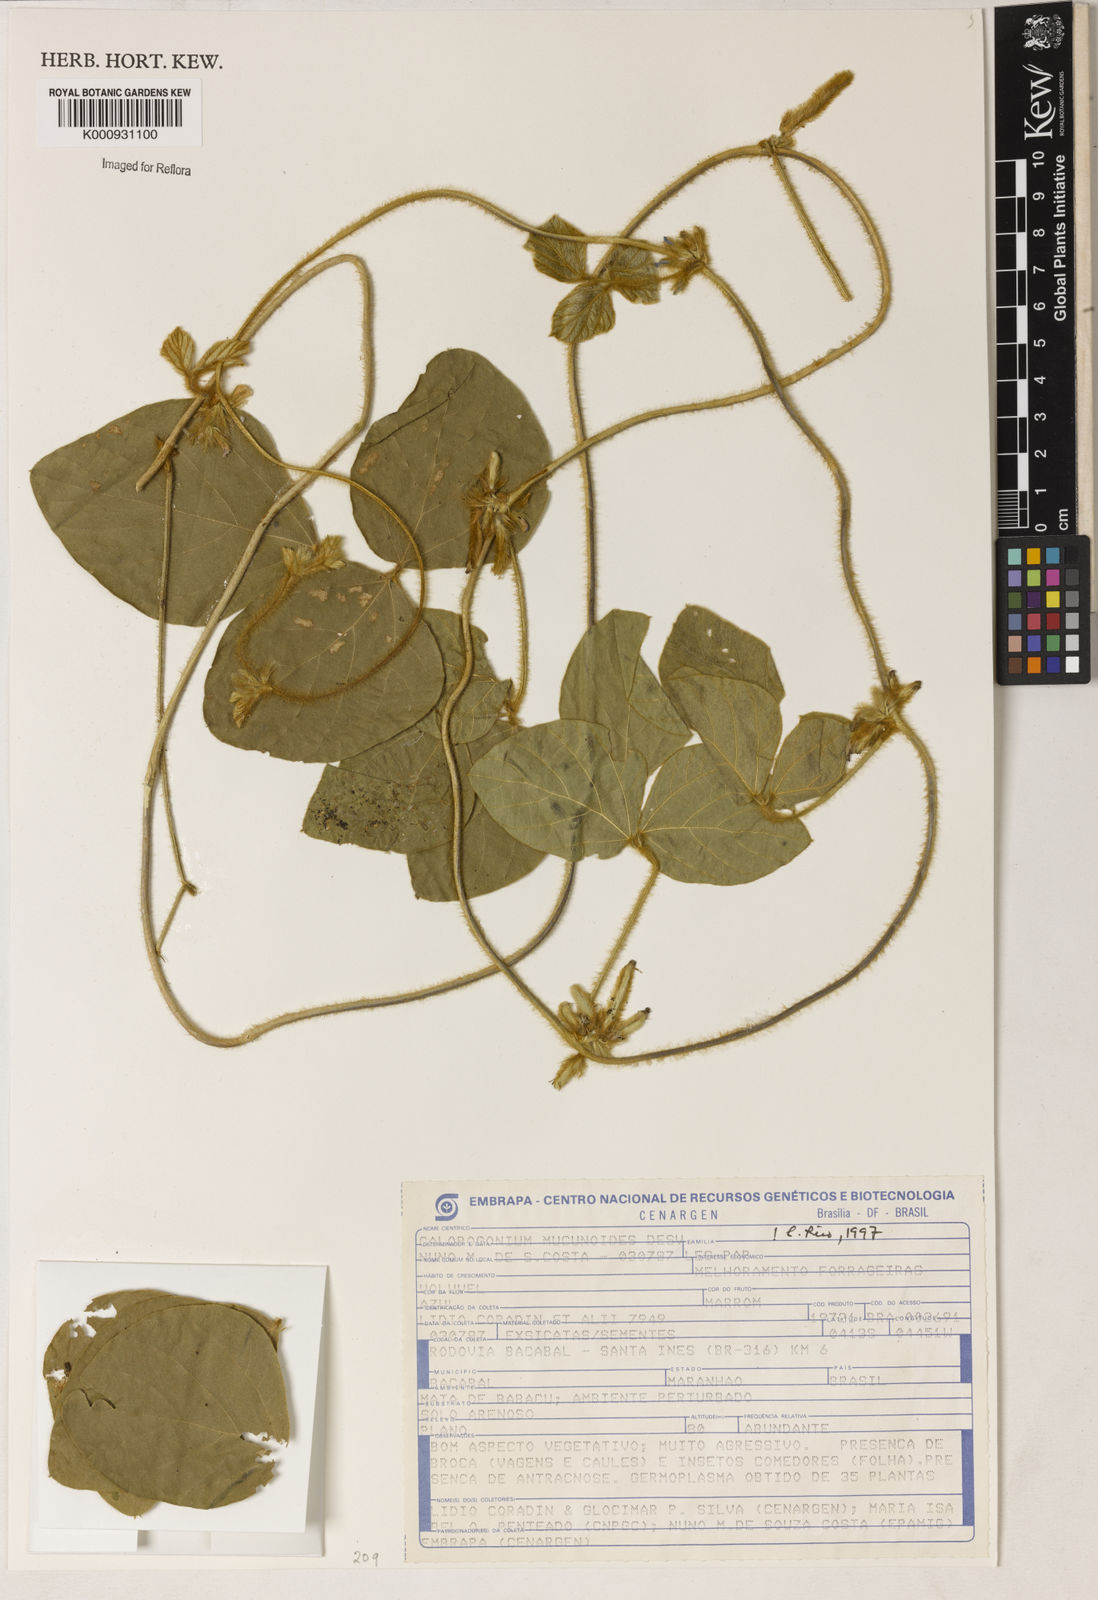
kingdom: Plantae
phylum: Tracheophyta
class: Magnoliopsida
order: Fabales
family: Fabaceae
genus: Calopogonium
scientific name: Calopogonium mucunoides
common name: Calopo
